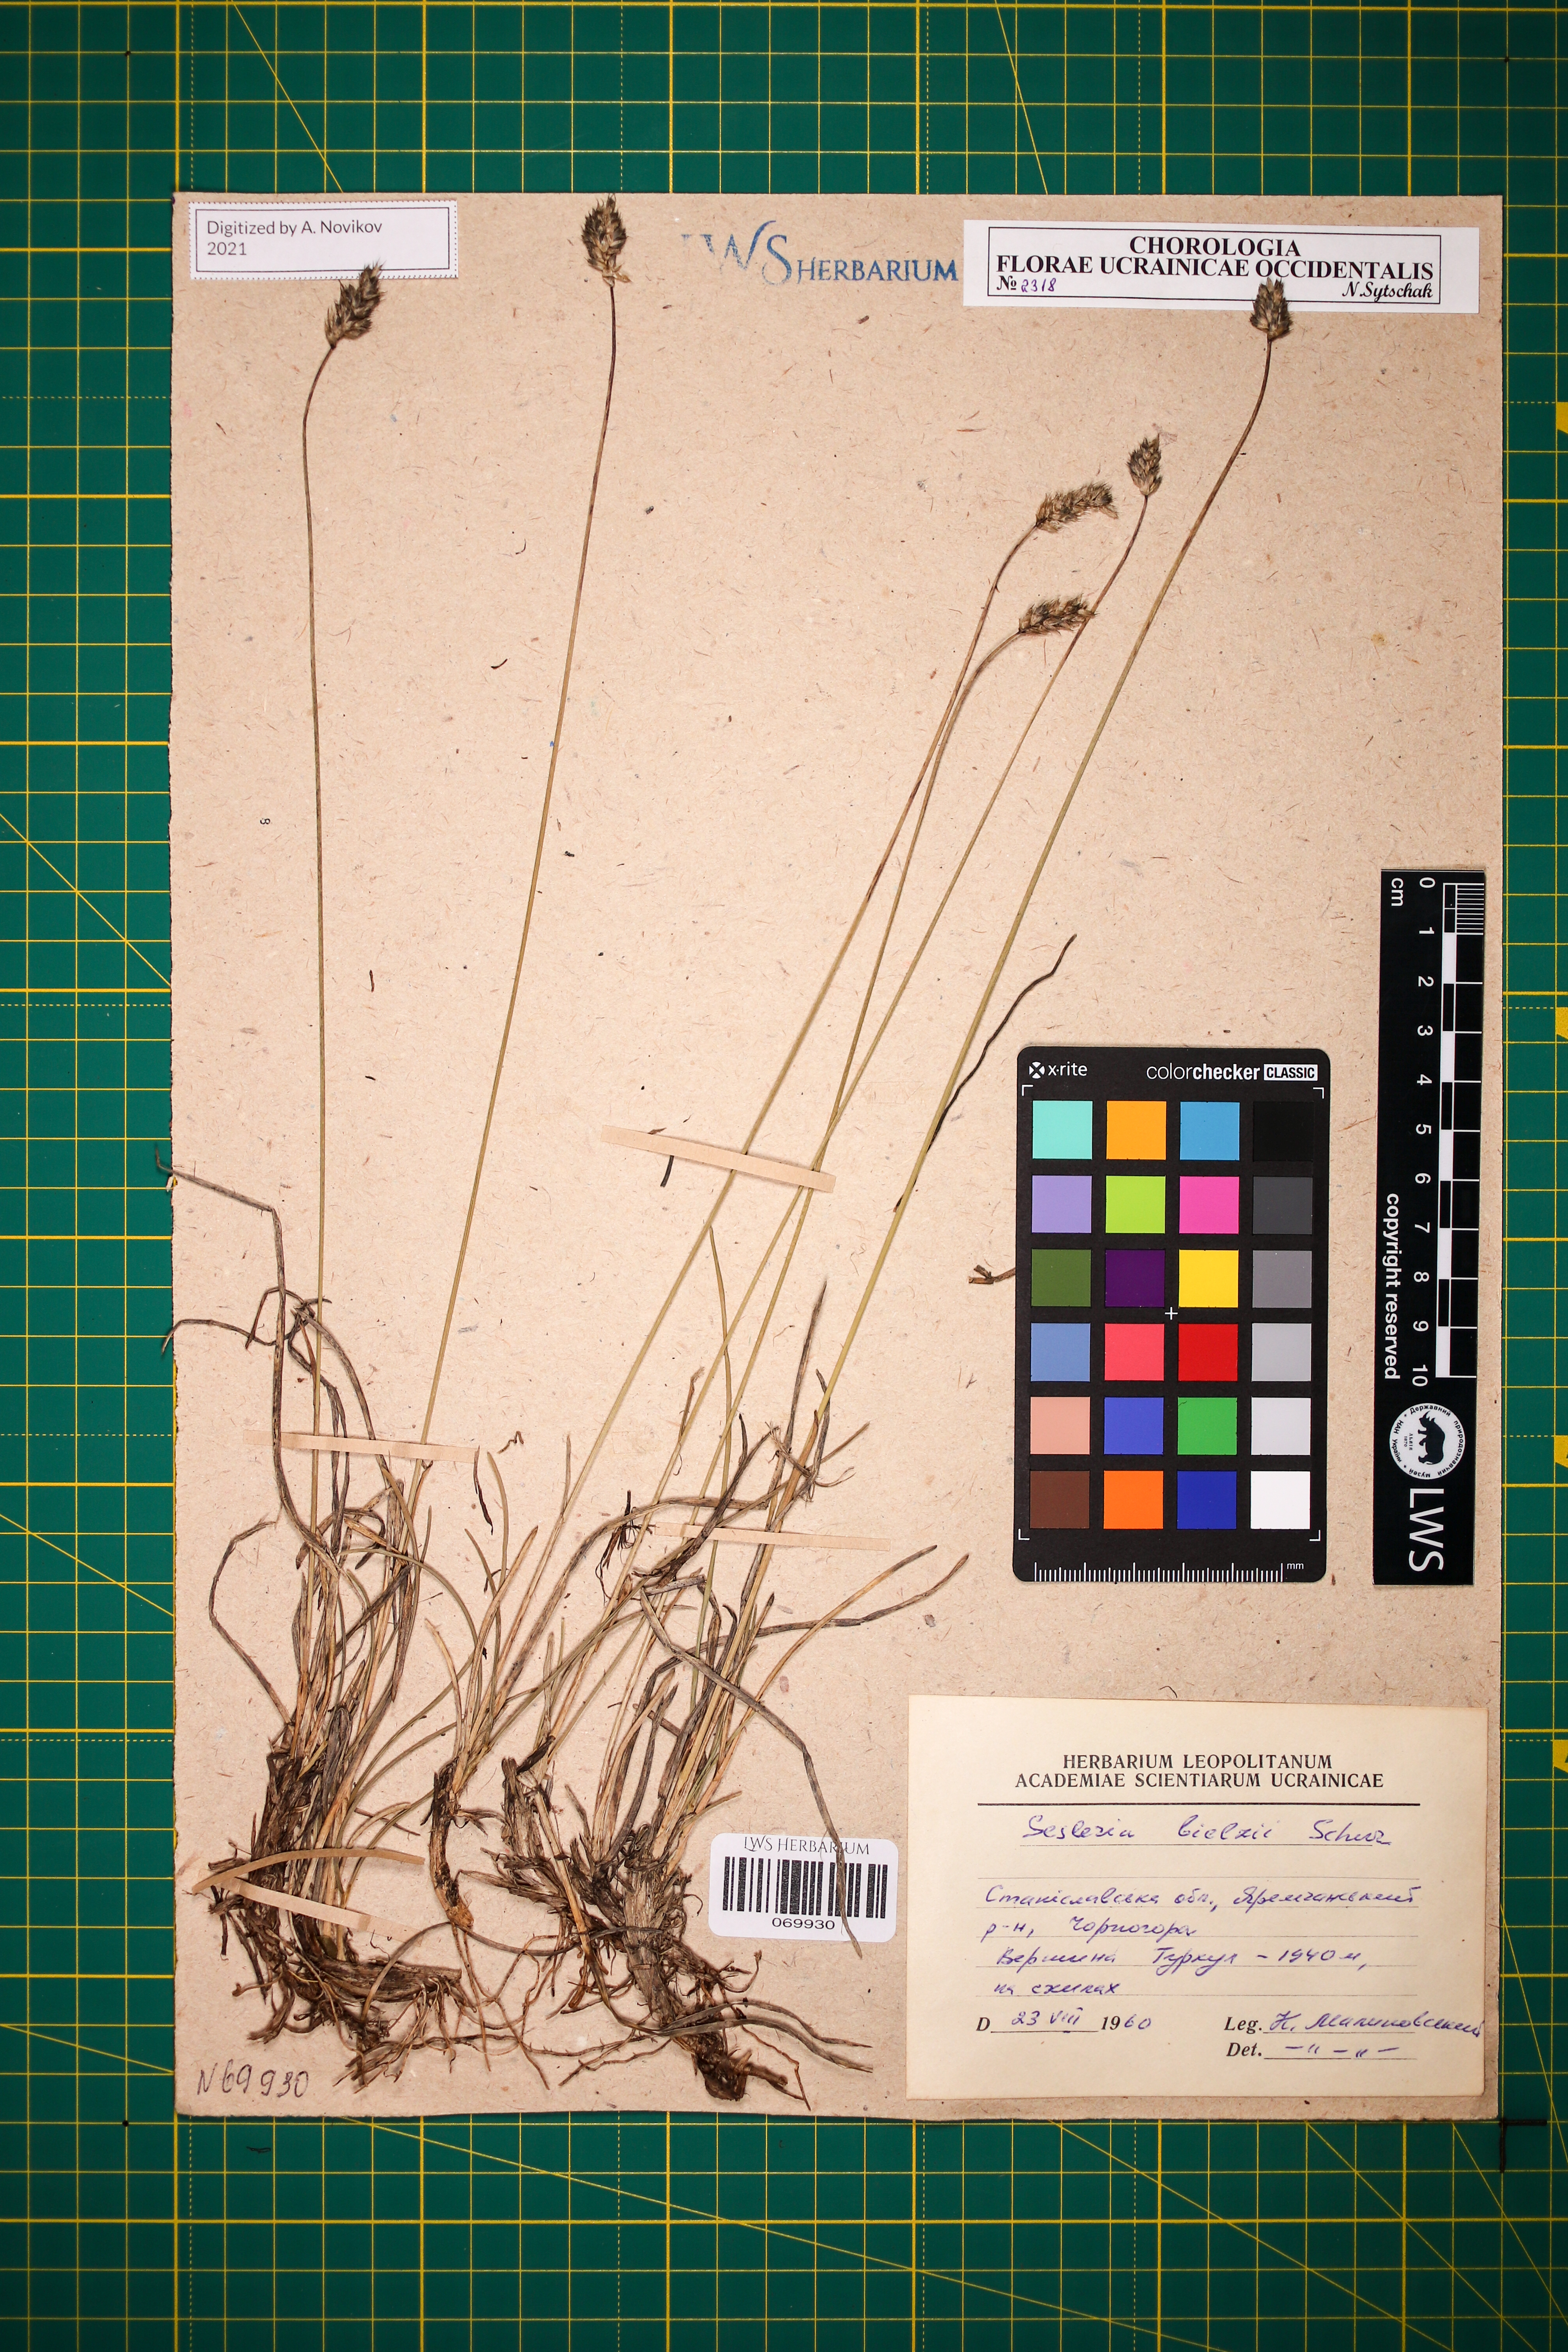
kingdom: Plantae
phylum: Tracheophyta
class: Liliopsida
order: Poales
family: Poaceae
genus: Sesleria
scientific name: Sesleria bielzii
